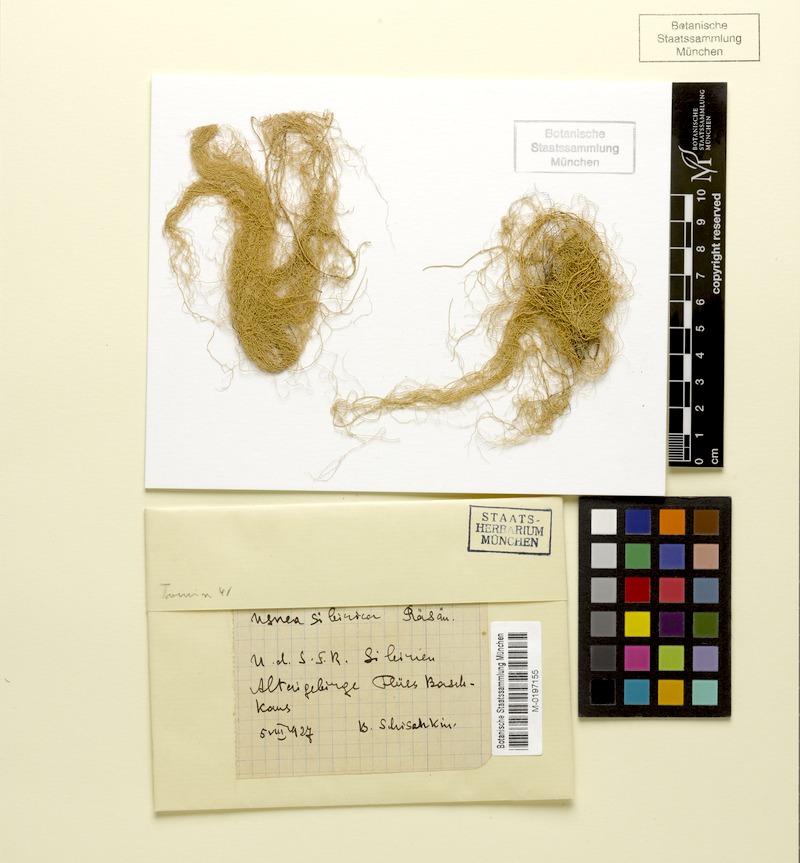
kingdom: Fungi
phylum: Ascomycota
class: Lecanoromycetes
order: Lecanorales
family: Parmeliaceae
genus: Usnea
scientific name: Usnea sibirica
